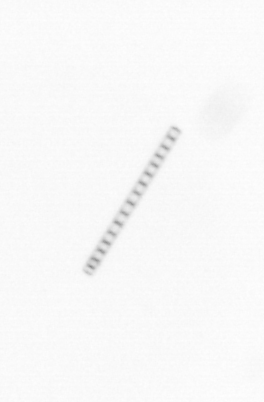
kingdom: Chromista
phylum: Ochrophyta
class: Bacillariophyceae
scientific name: Bacillariophyceae
